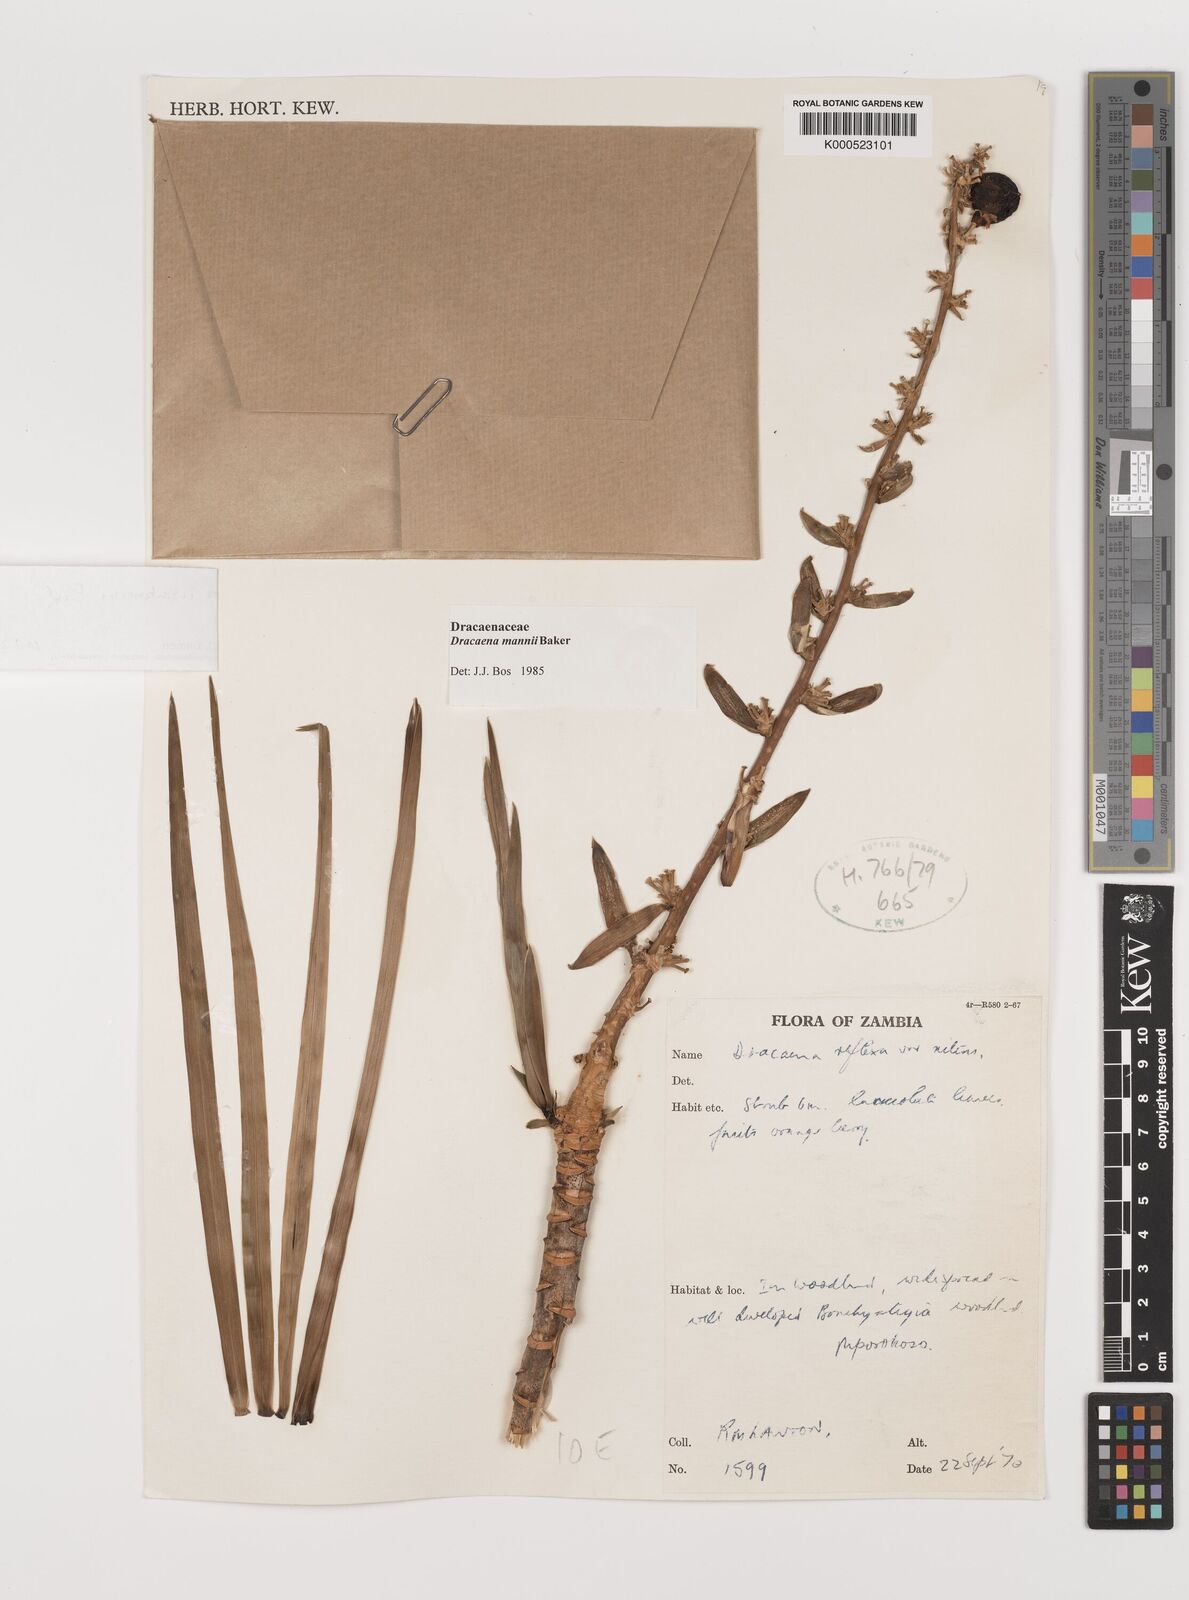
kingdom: Plantae
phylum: Tracheophyta
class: Liliopsida
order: Asparagales
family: Asparagaceae
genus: Dracaena
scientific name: Dracaena usambarensis
